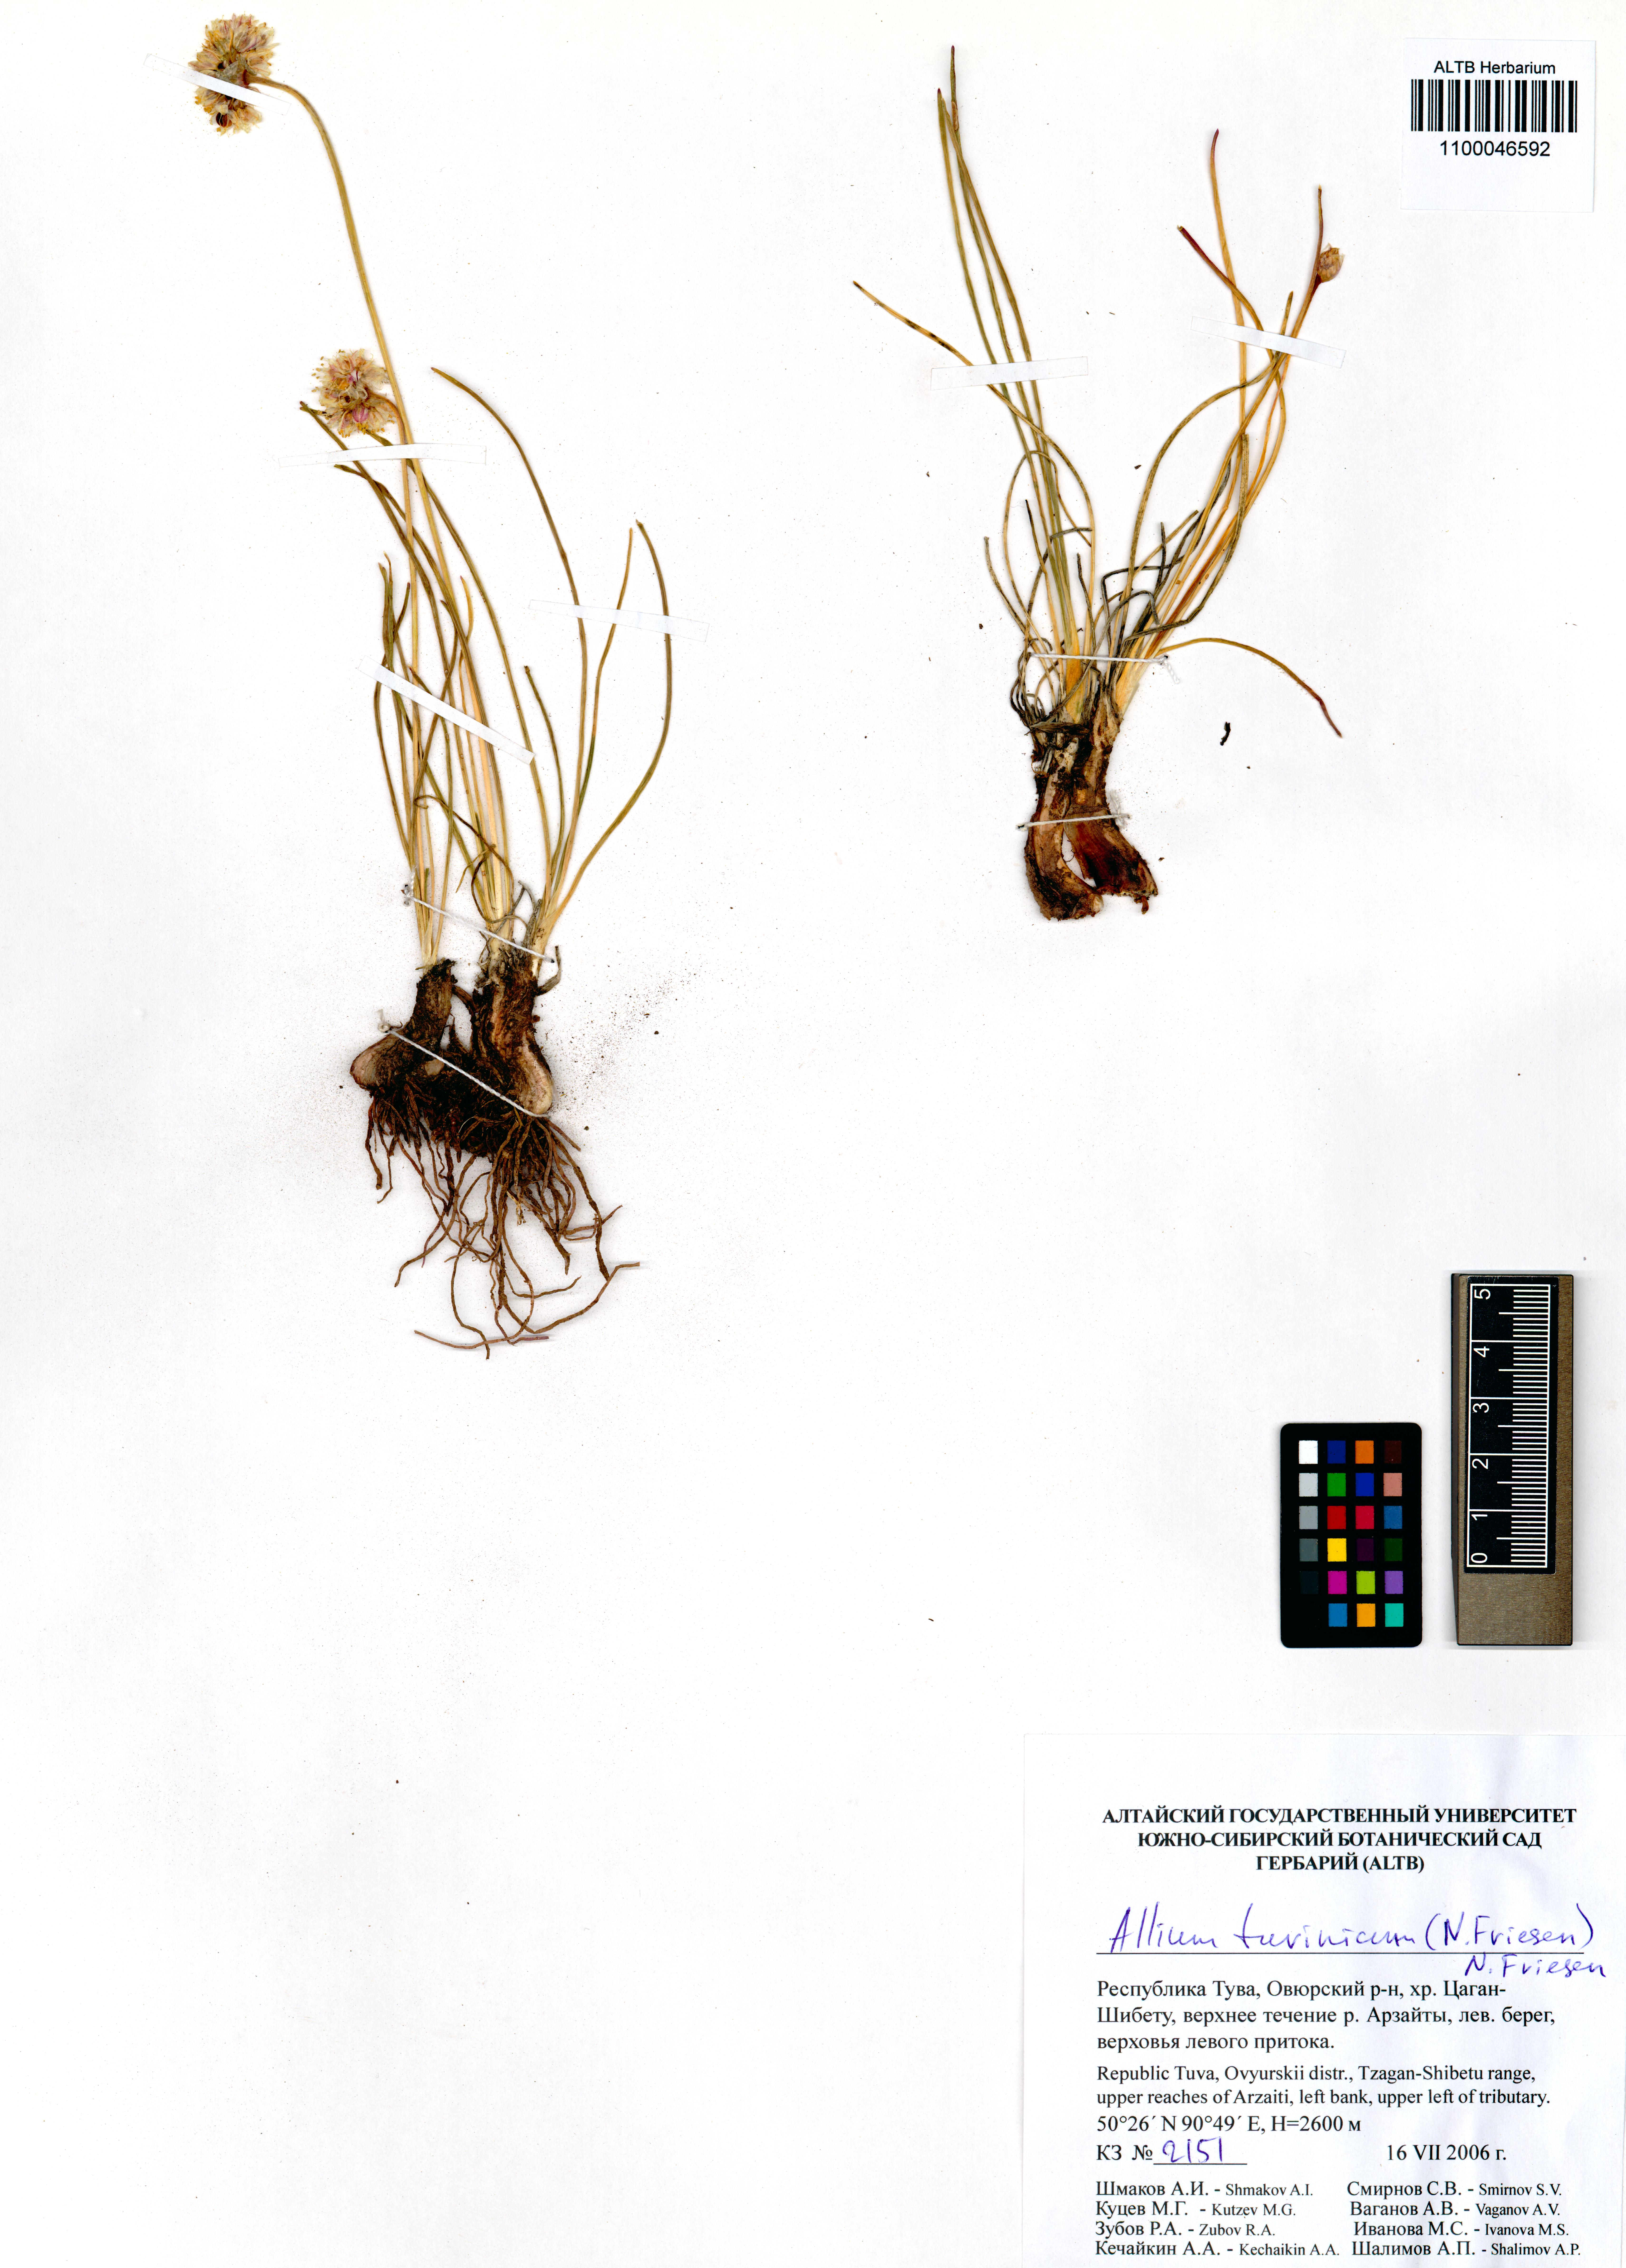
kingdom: Plantae
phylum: Tracheophyta
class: Liliopsida
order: Asparagales
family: Amaryllidaceae
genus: Allium
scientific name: Allium tuvinicum
